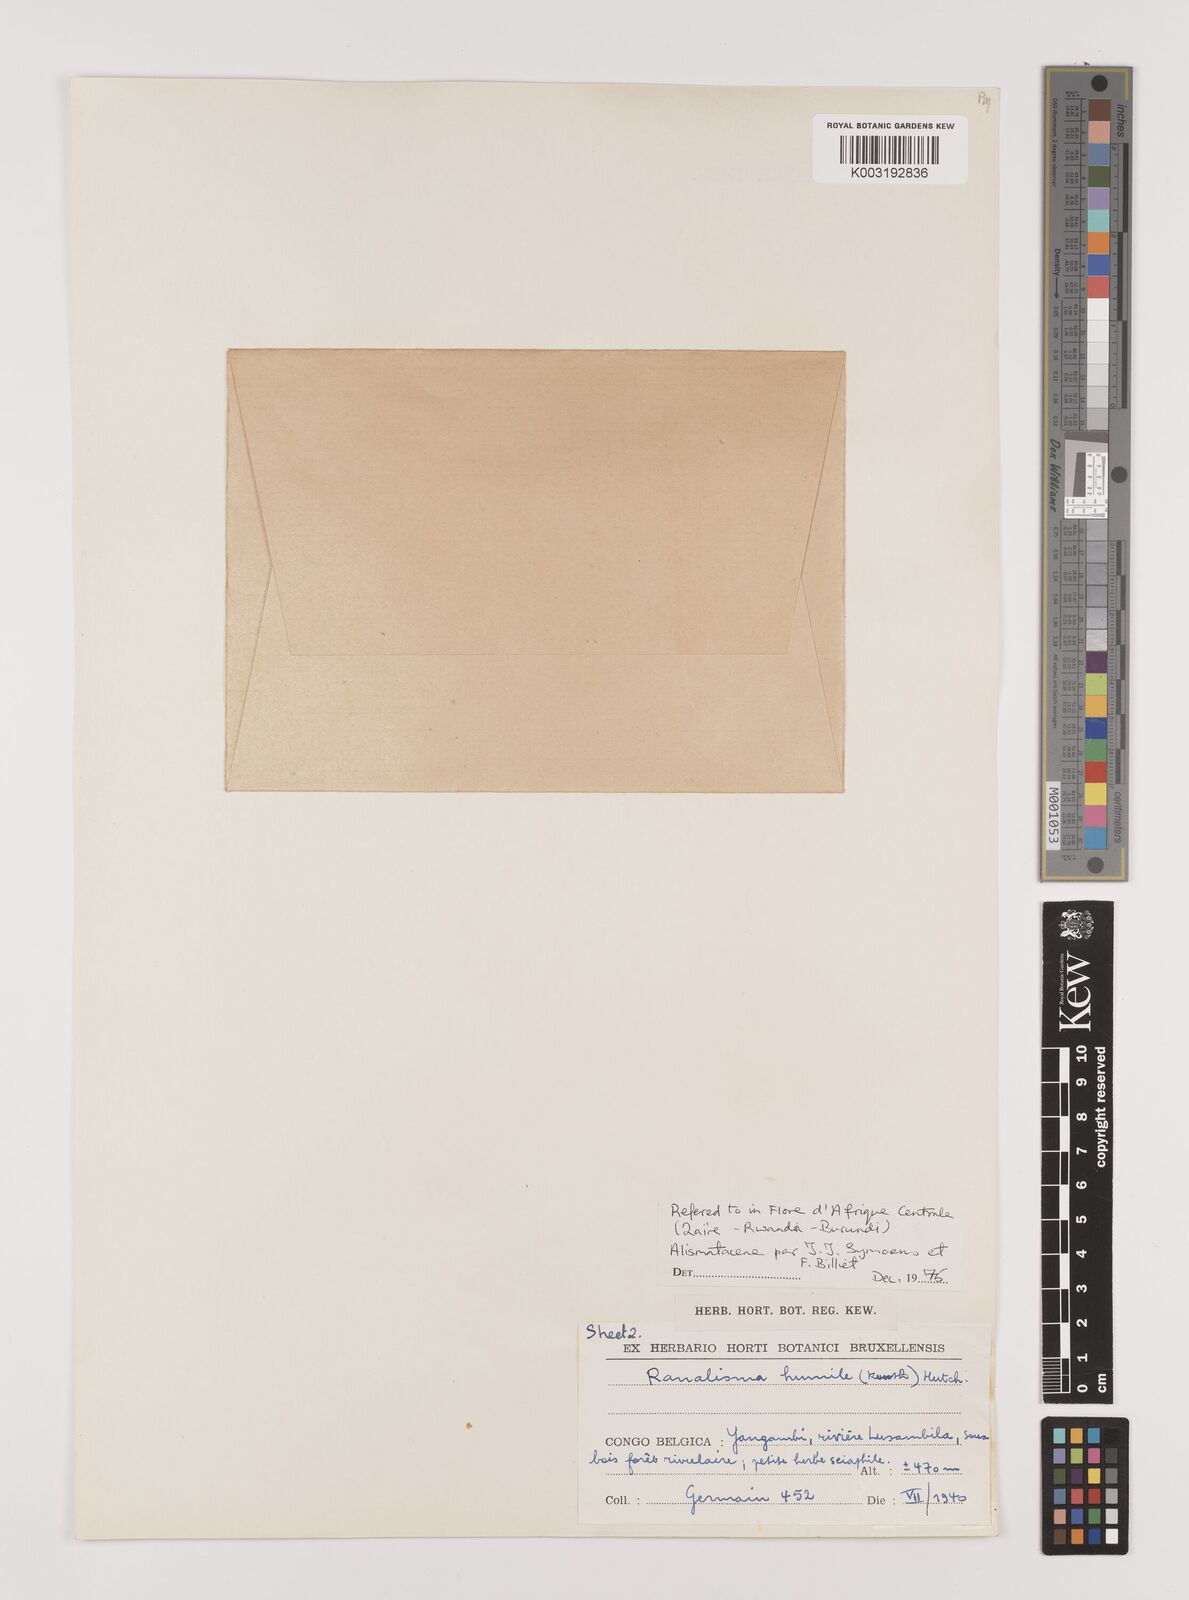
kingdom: Plantae
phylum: Tracheophyta
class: Liliopsida
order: Alismatales
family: Alismataceae
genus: Ranalisma
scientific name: Ranalisma humile
